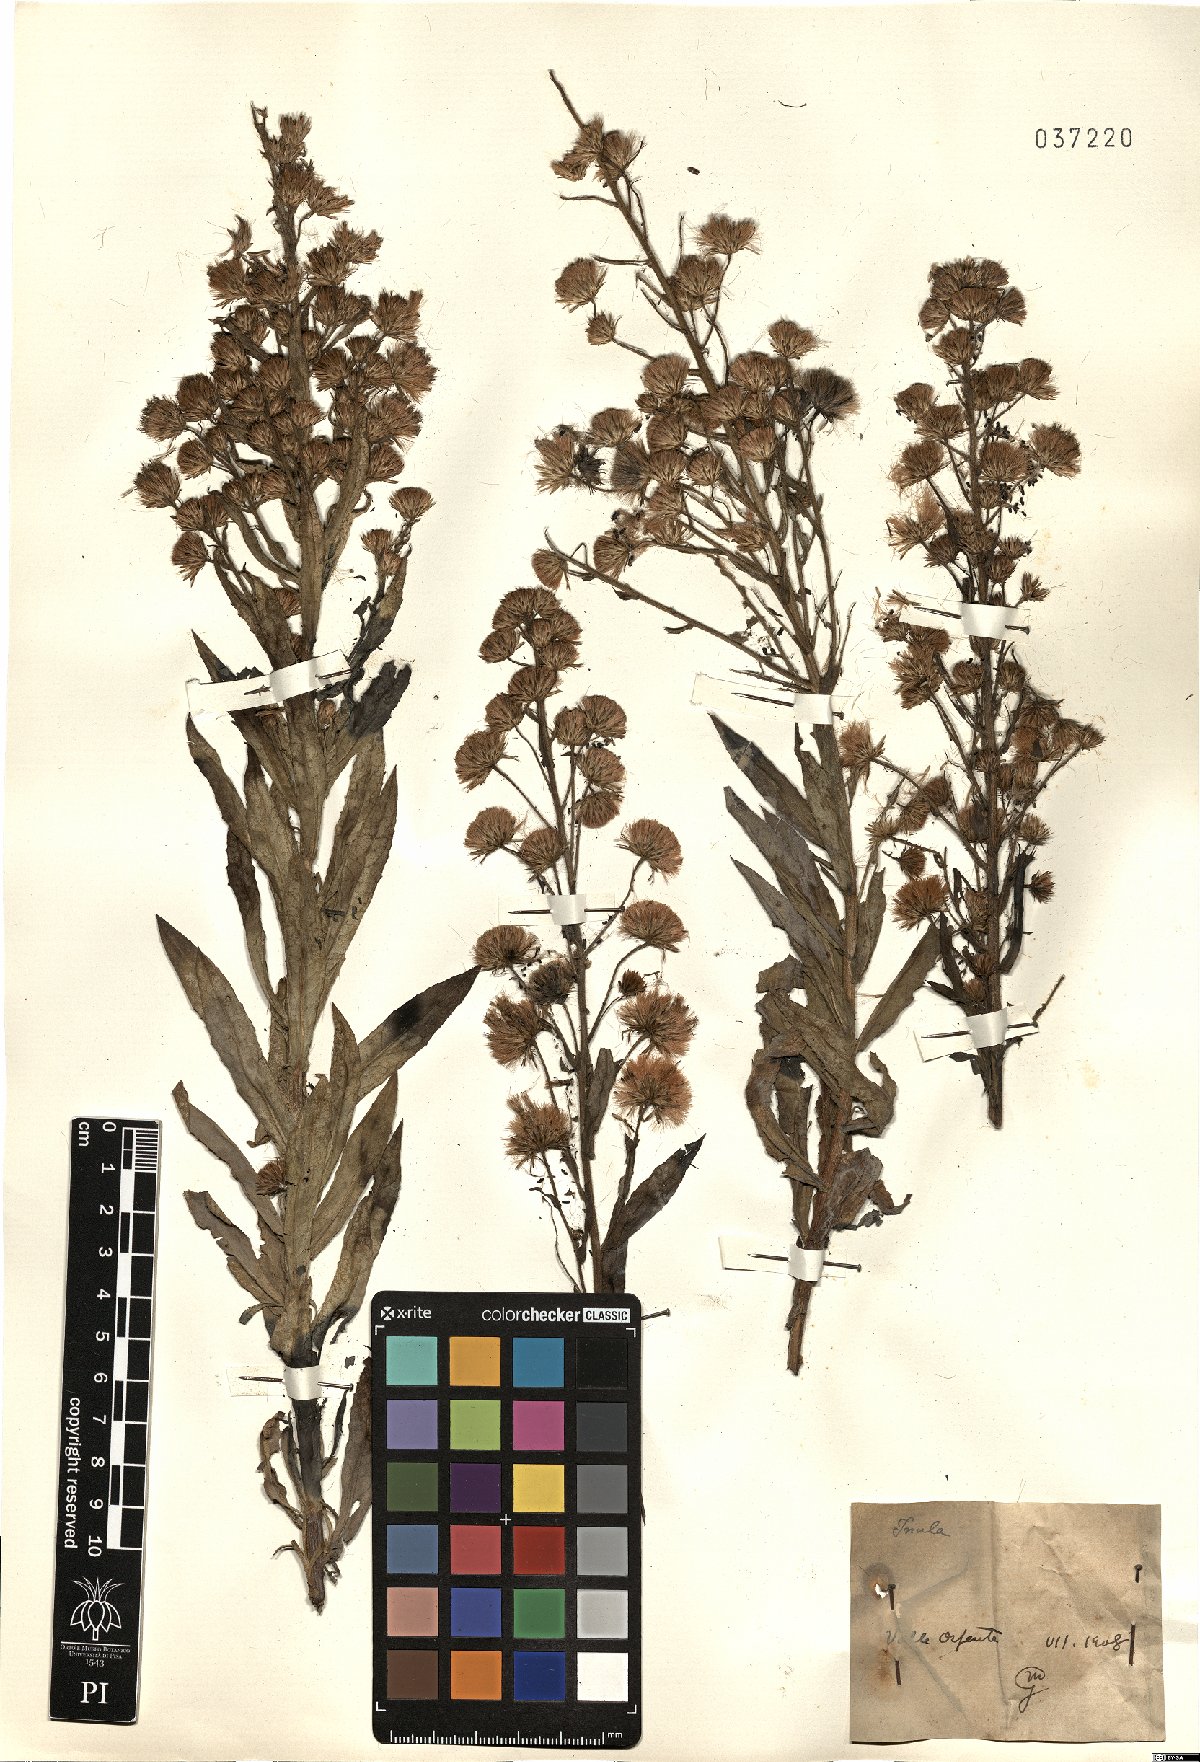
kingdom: Plantae
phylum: Tracheophyta
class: Magnoliopsida
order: Asterales
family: Asteraceae
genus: Inula
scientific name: Inula
